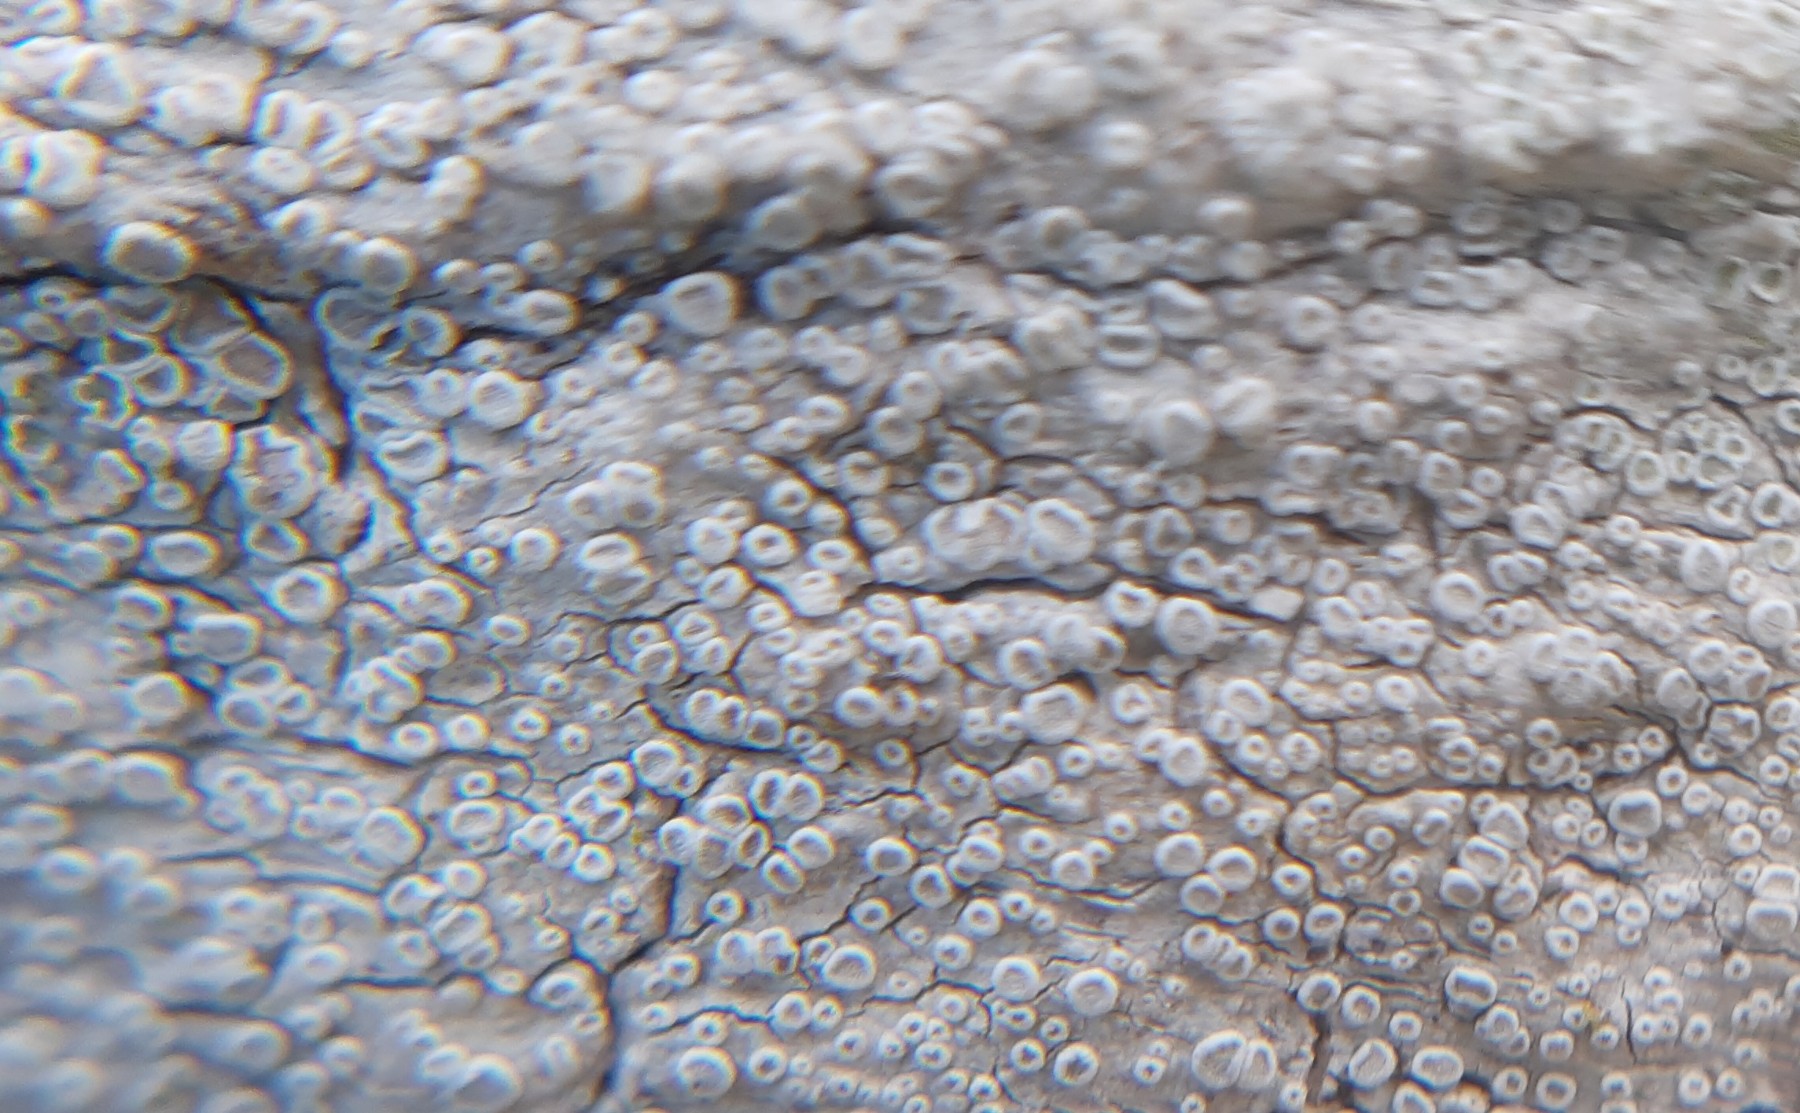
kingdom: Fungi
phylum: Ascomycota
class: Lecanoromycetes
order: Lecanorales
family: Lecanoraceae
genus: Glaucomaria
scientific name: Glaucomaria carpinea
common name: hviddugget kantskivelav
